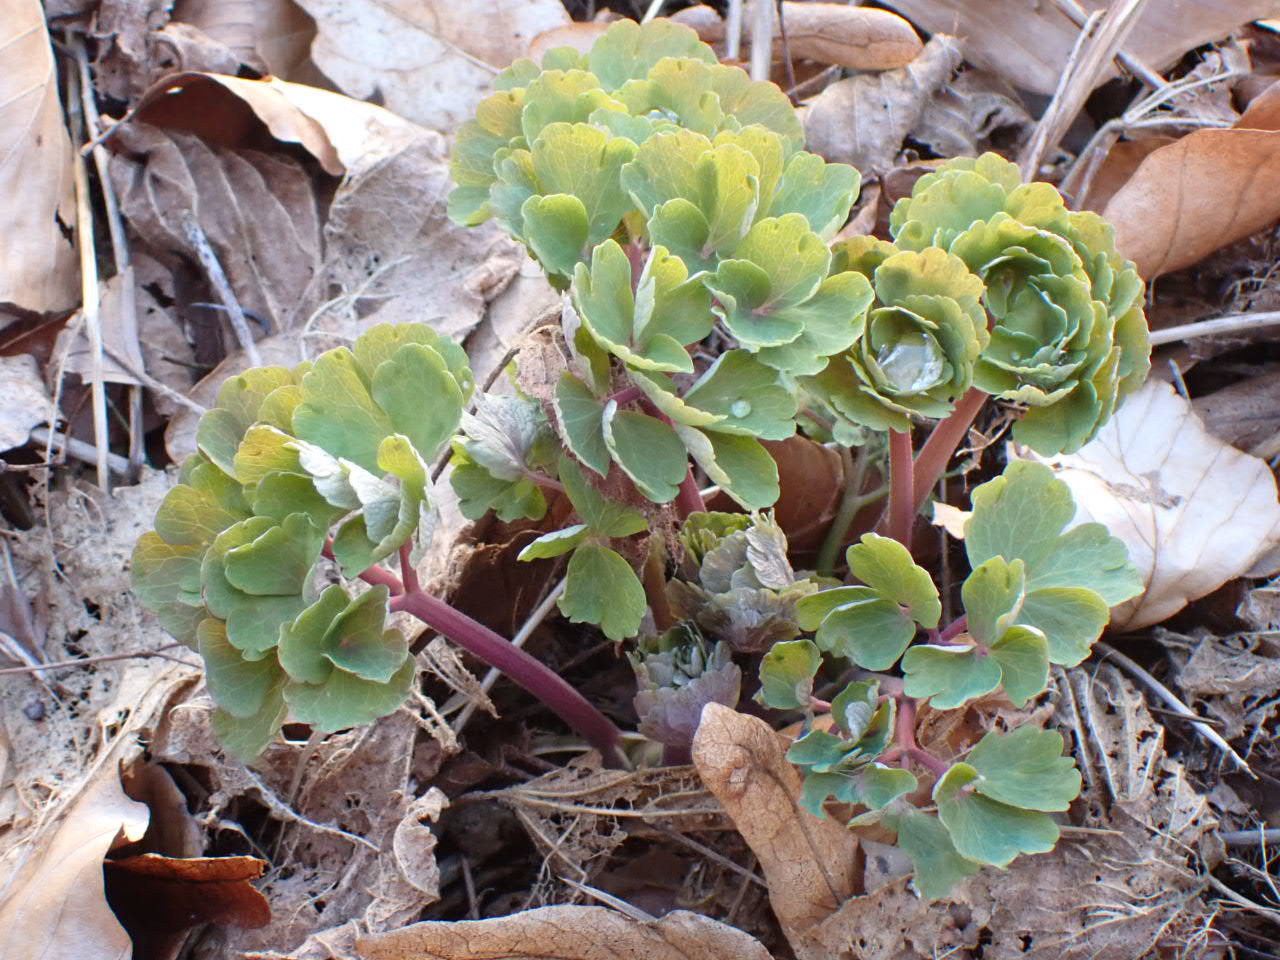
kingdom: Plantae
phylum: Tracheophyta
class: Magnoliopsida
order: Ranunculales
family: Ranunculaceae
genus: Aquilegia
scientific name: Aquilegia vulgaris
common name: Akeleje
